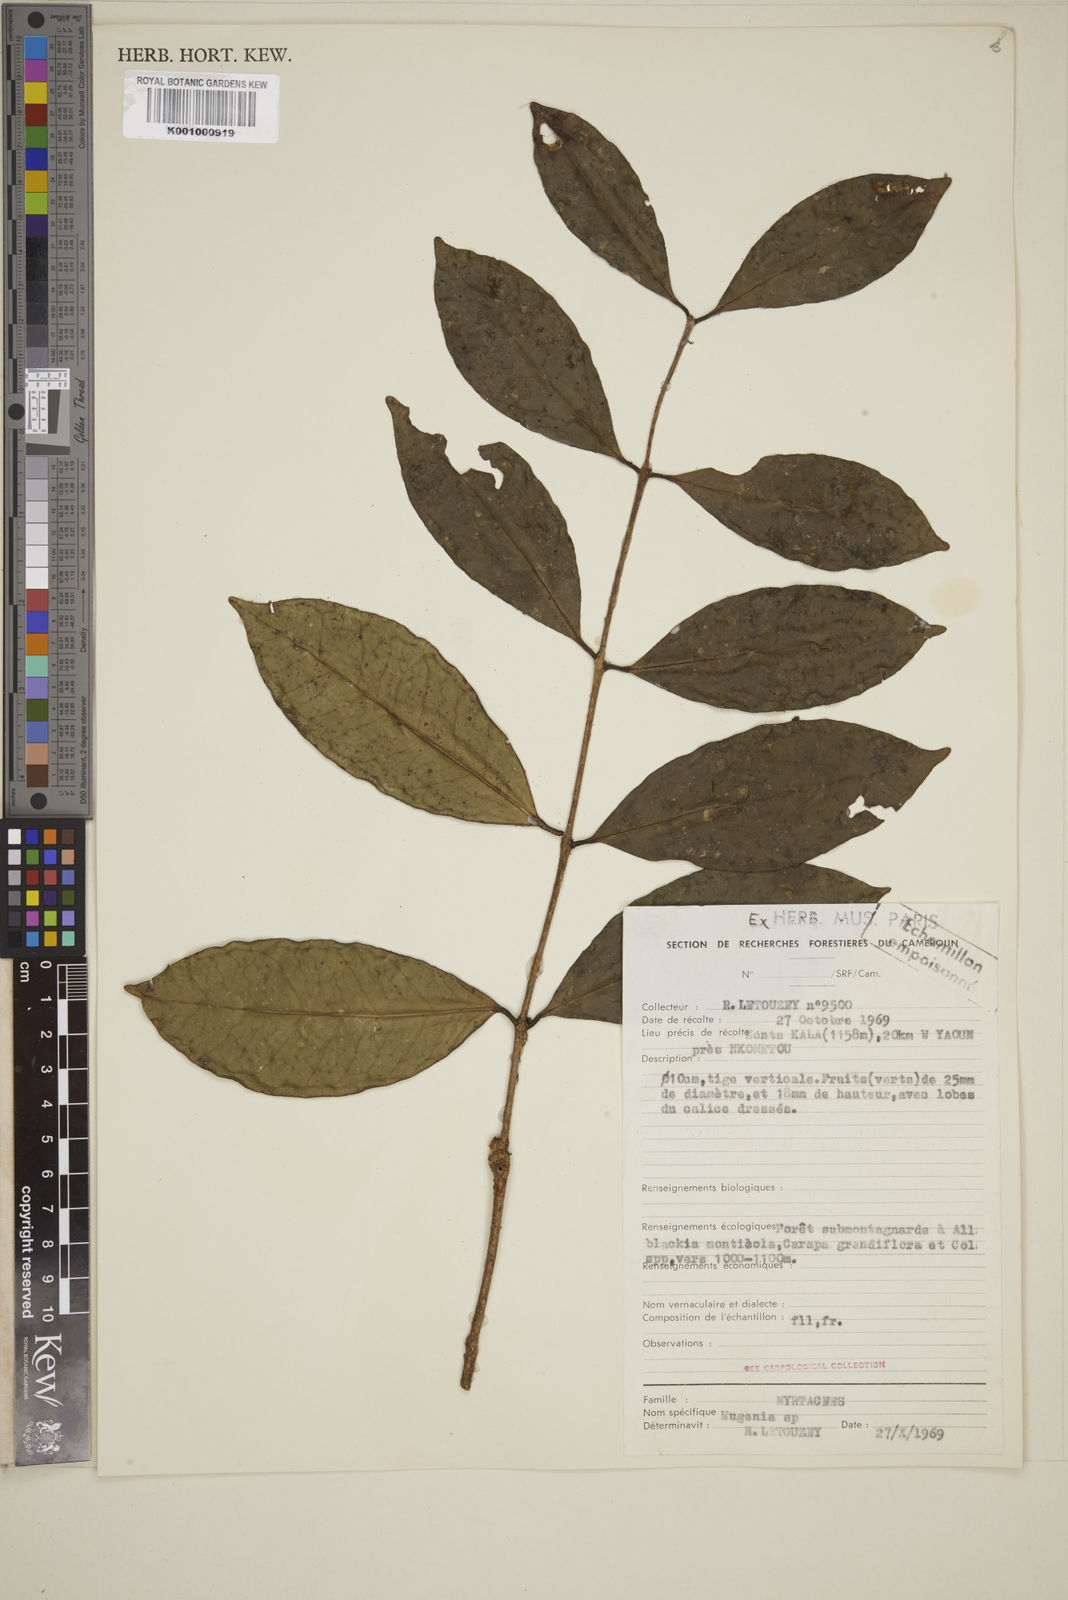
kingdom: Plantae
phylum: Tracheophyta
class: Magnoliopsida
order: Myrtales
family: Myrtaceae
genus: Eugenia
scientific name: Eugenia
